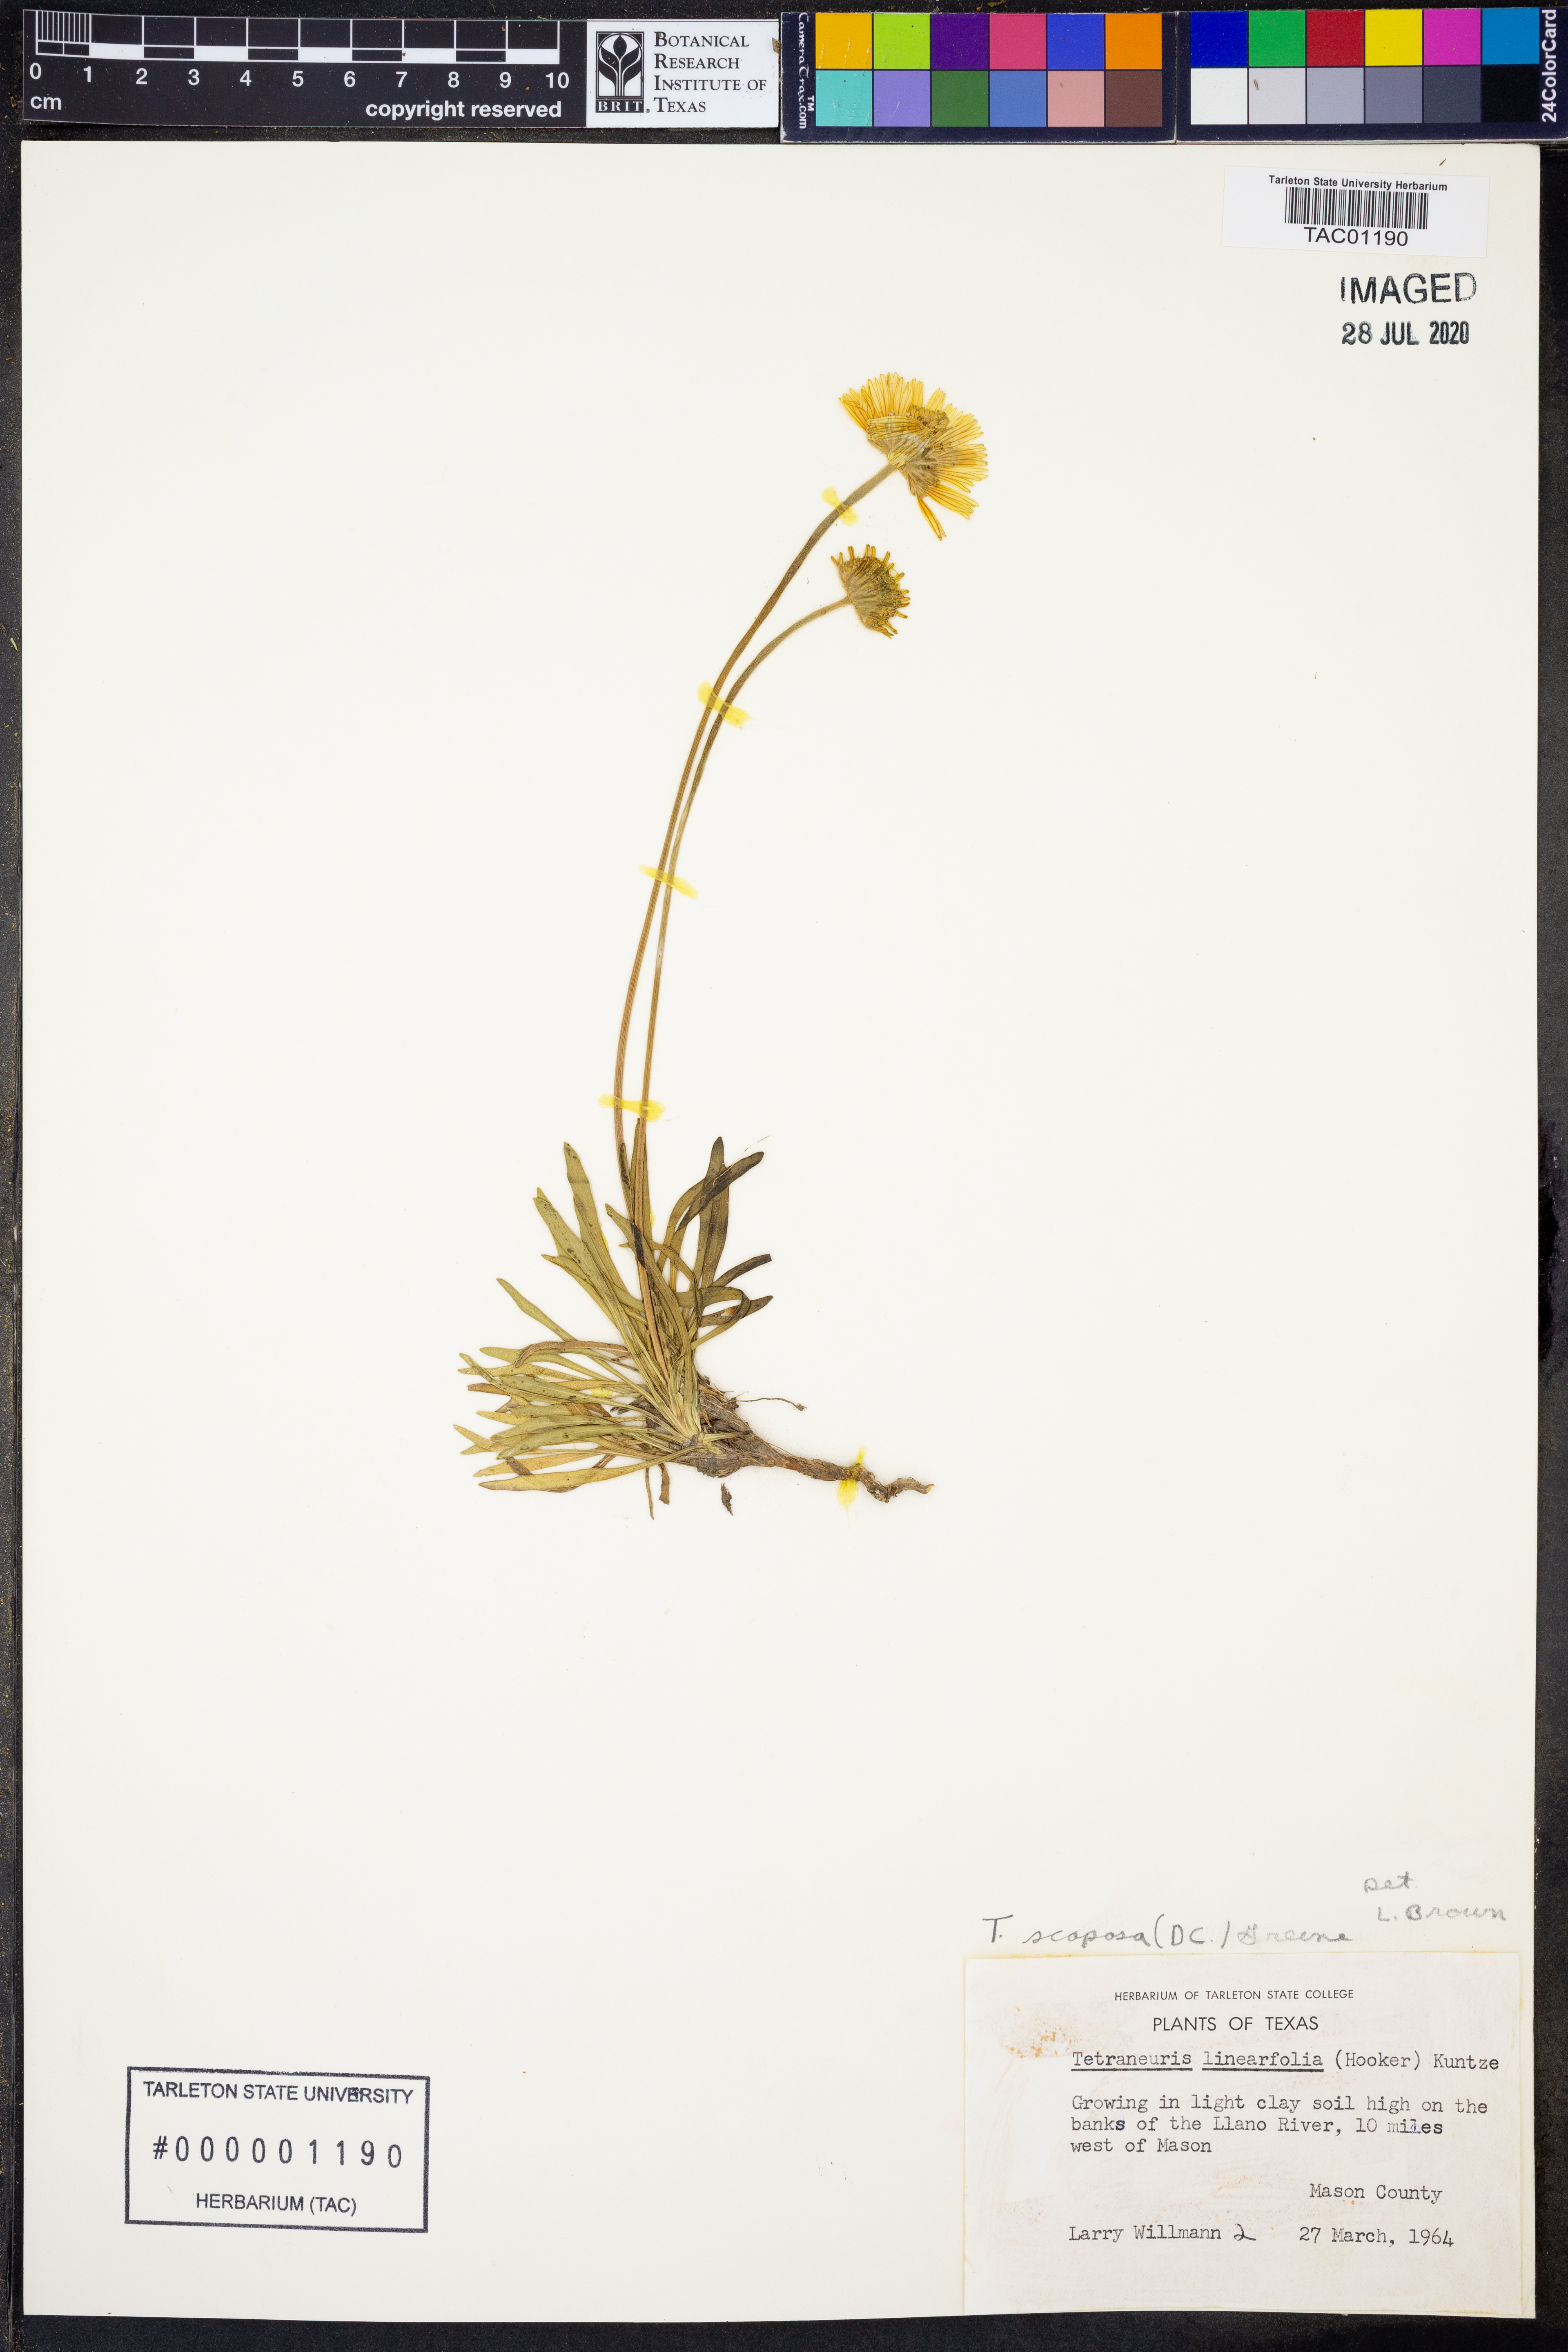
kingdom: Plantae
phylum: Tracheophyta
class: Magnoliopsida
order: Asterales
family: Asteraceae
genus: Tetraneuris
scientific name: Tetraneuris scaposa
